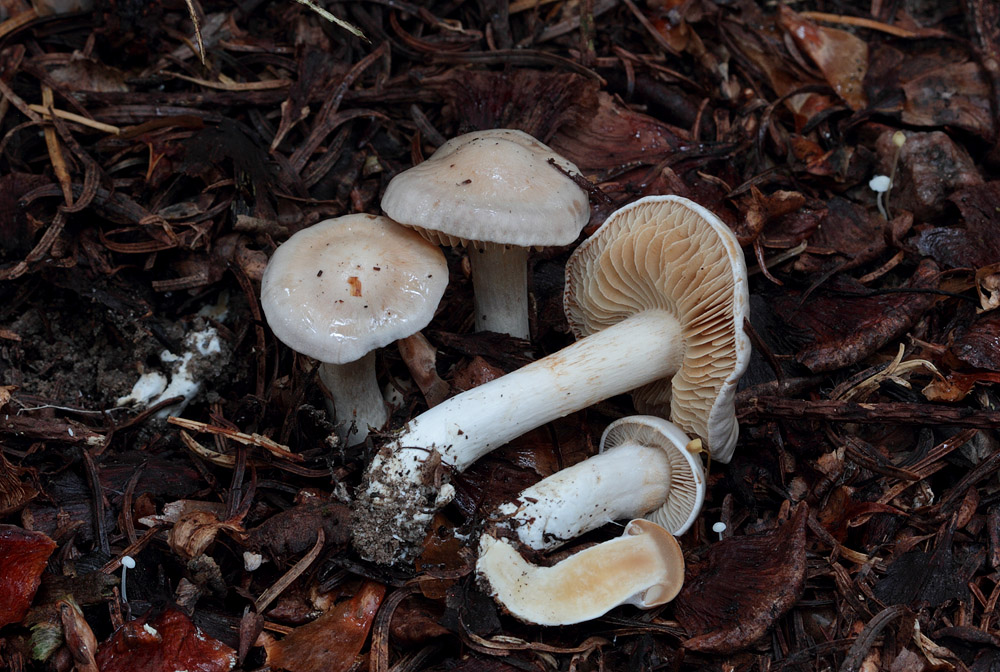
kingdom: Fungi
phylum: Basidiomycota
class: Agaricomycetes
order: Agaricales
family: Cortinariaceae
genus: Thaxterogaster
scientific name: Thaxterogaster leucoluteolus
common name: isabella slørhat
